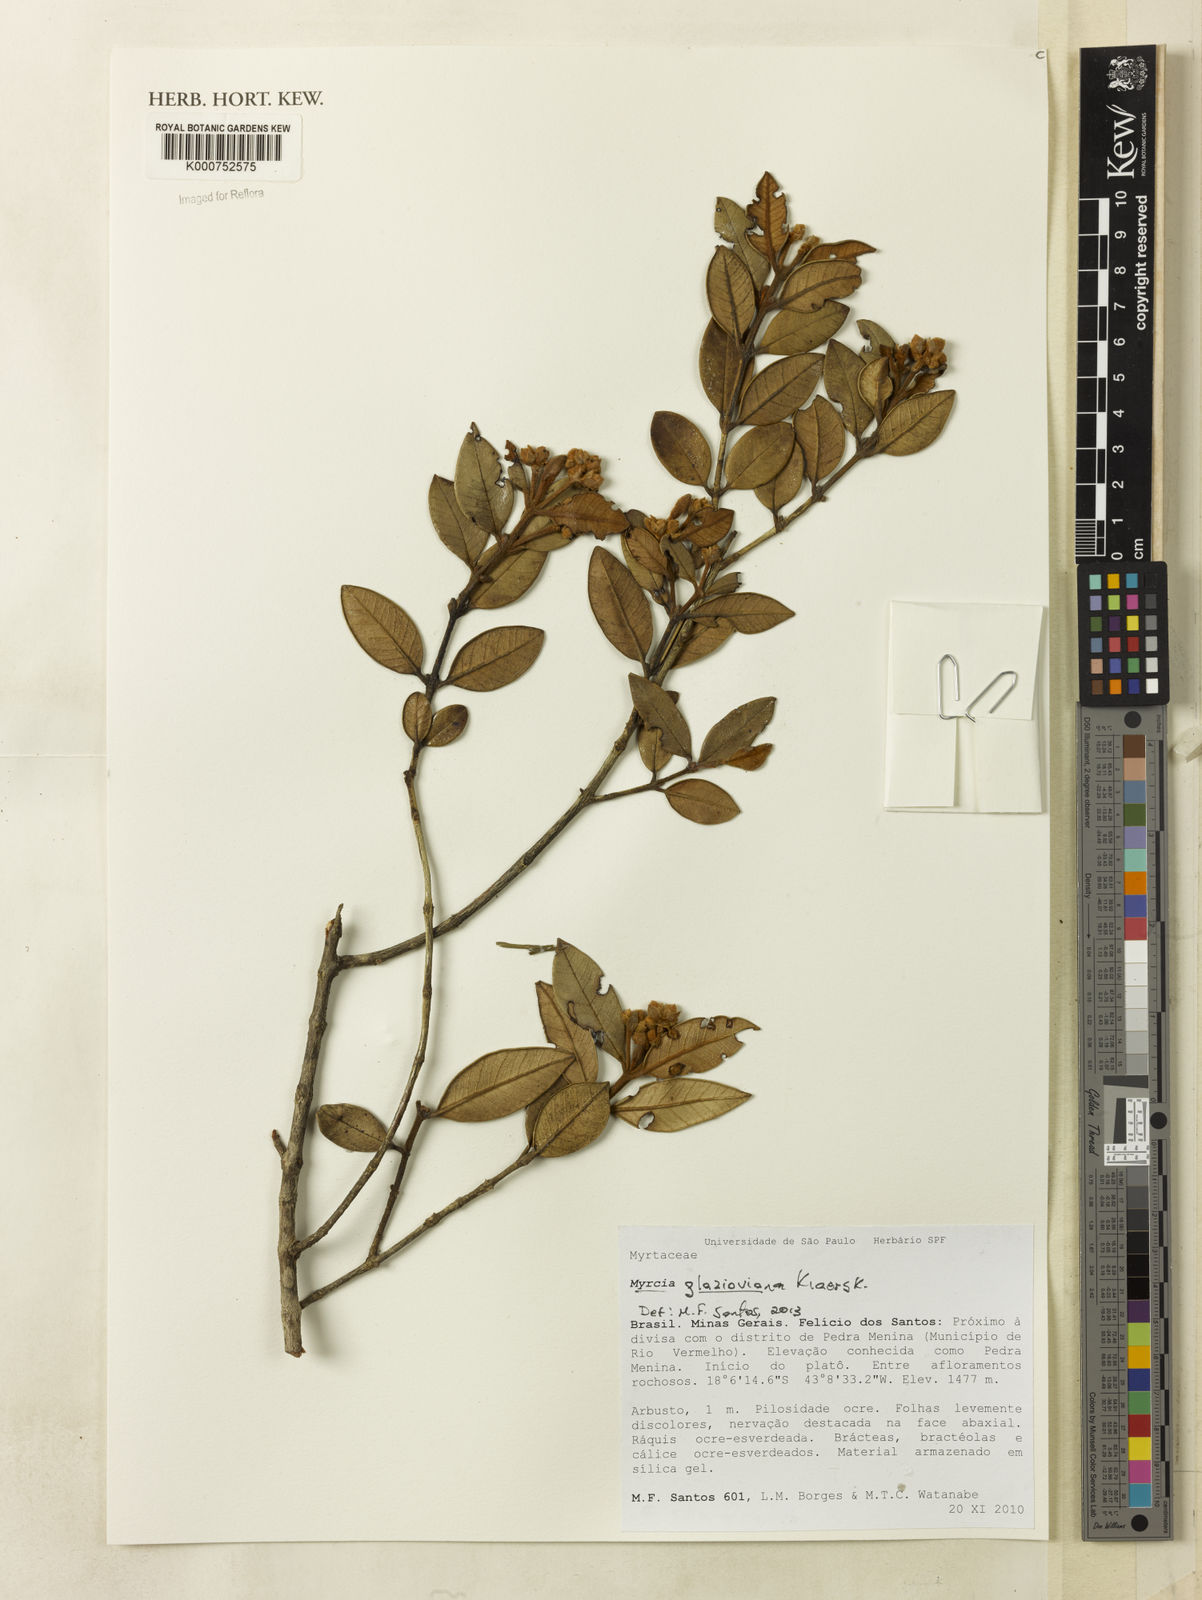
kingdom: Plantae
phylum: Tracheophyta
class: Magnoliopsida
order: Myrtales
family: Myrtaceae
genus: Myrcia
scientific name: Myrcia neospruceana
